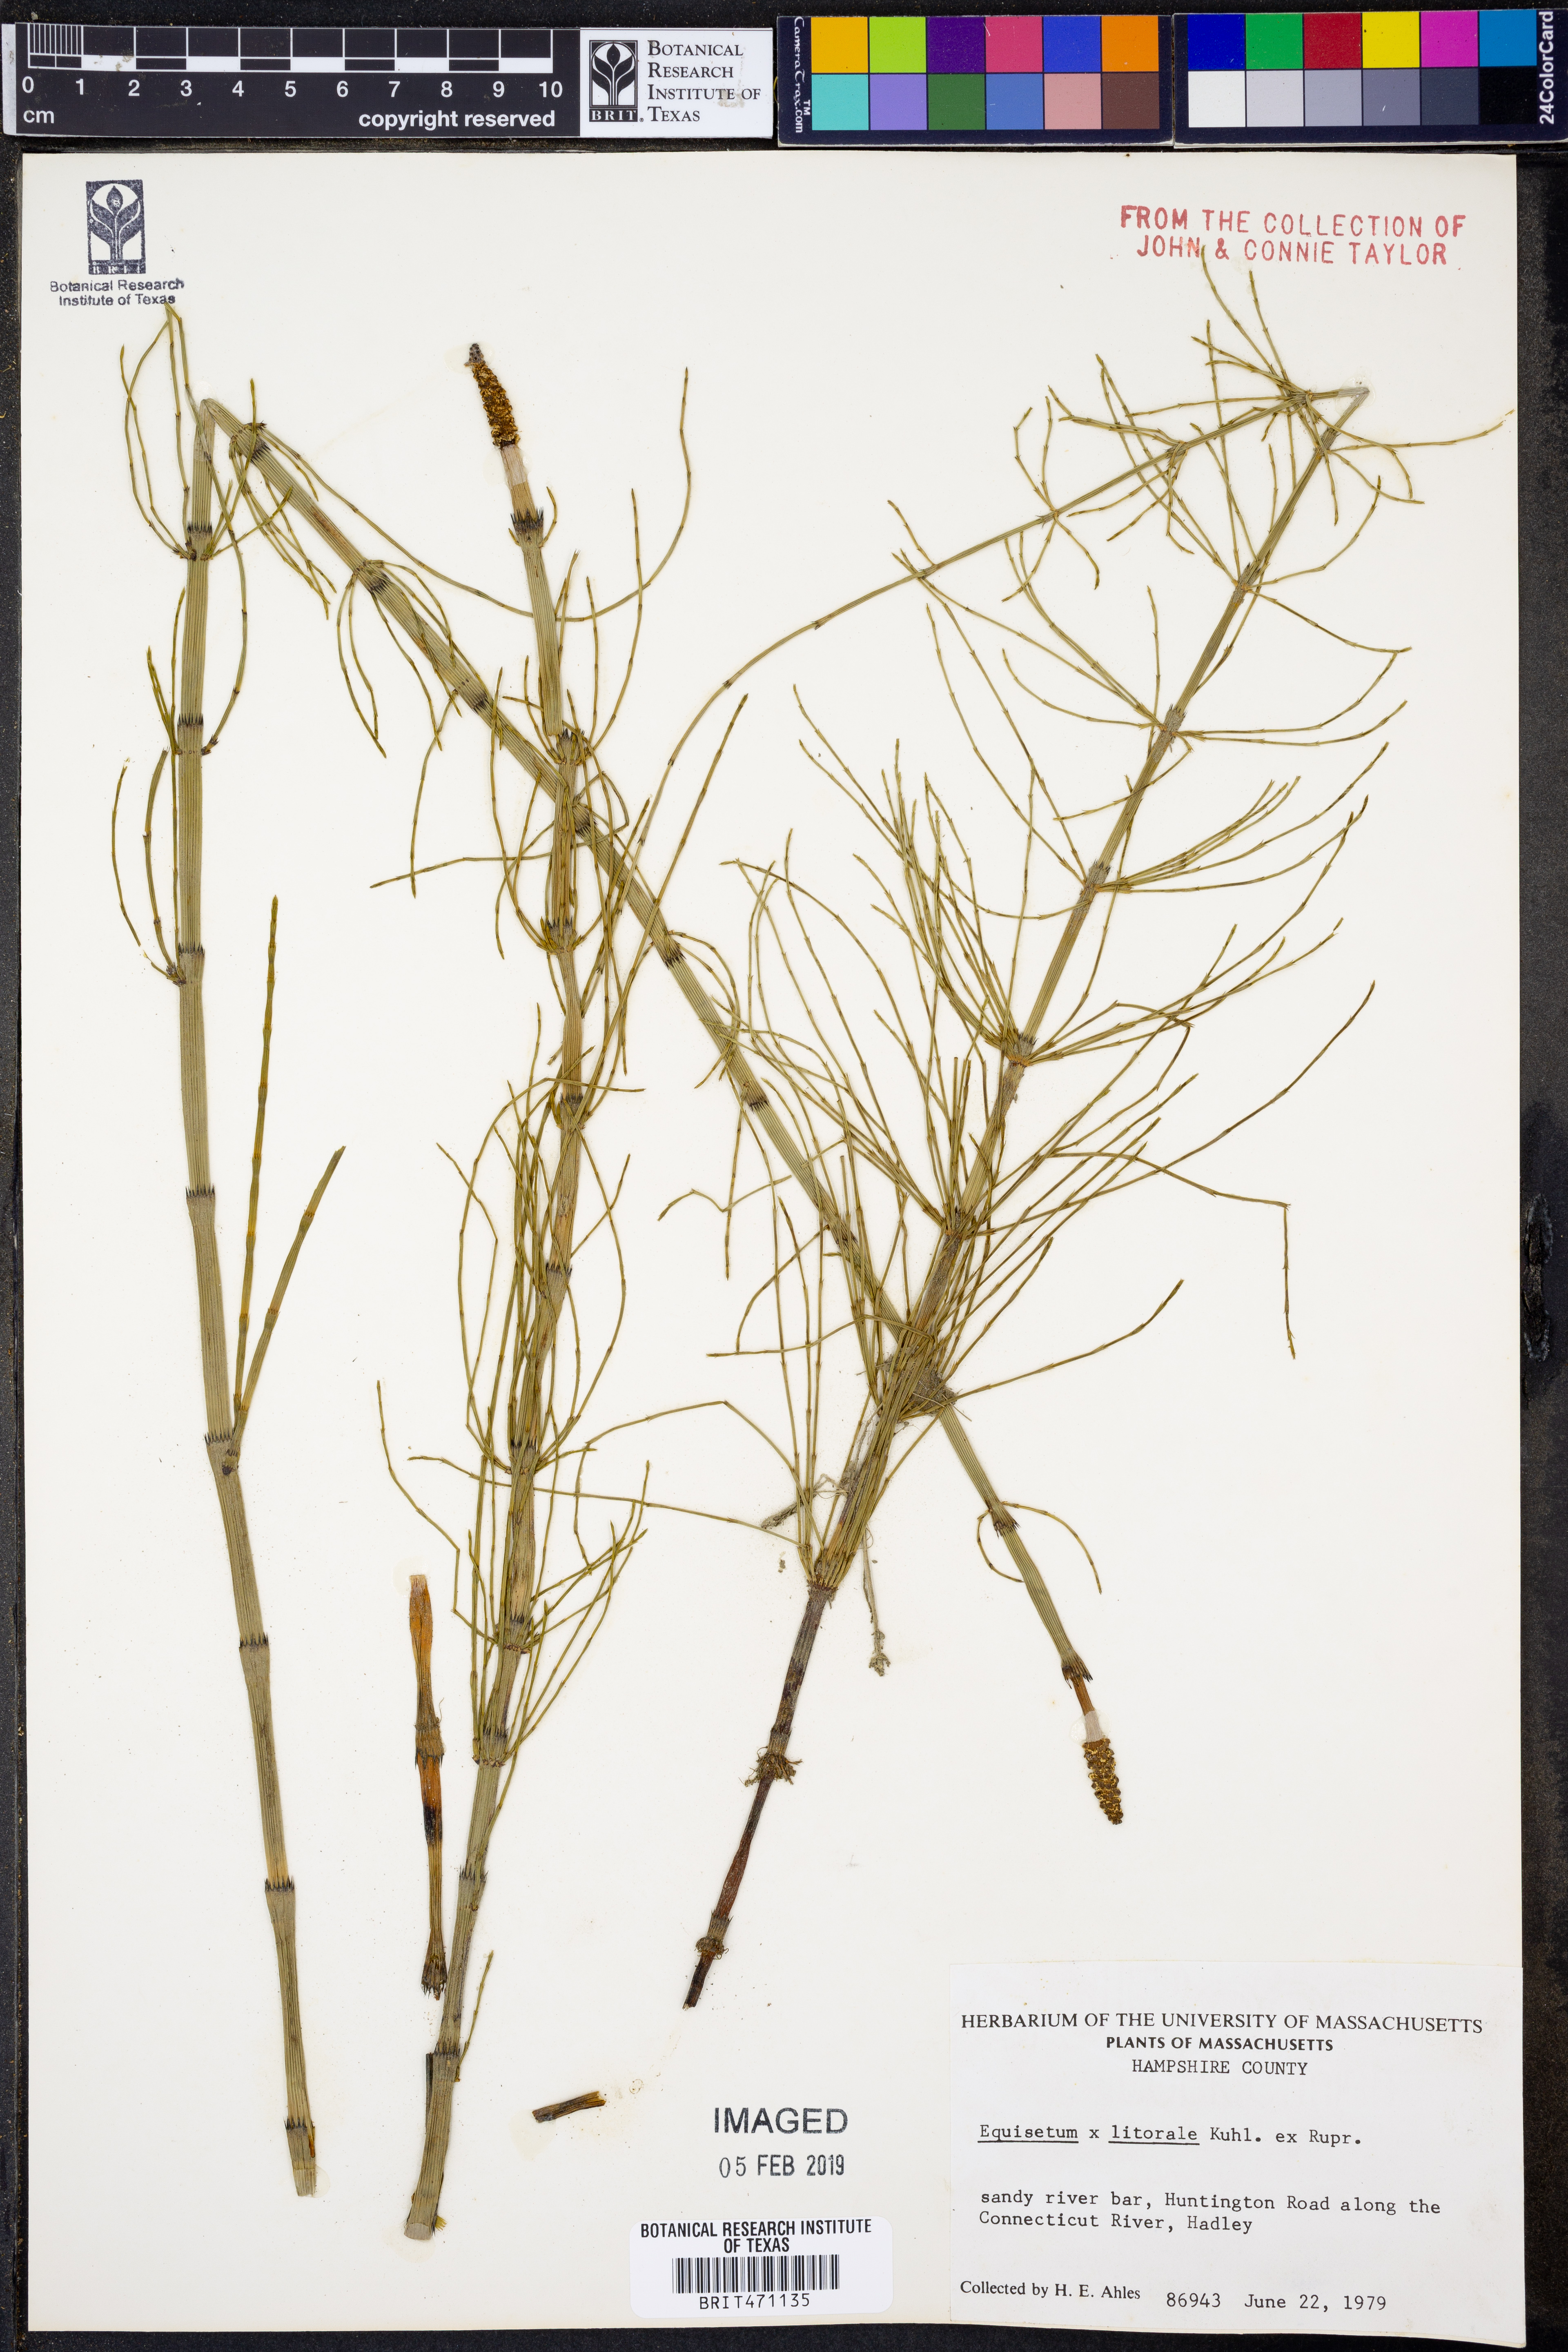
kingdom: Plantae
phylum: Tracheophyta
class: Polypodiopsida
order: Equisetales
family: Equisetaceae
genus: Equisetum
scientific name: Equisetum
